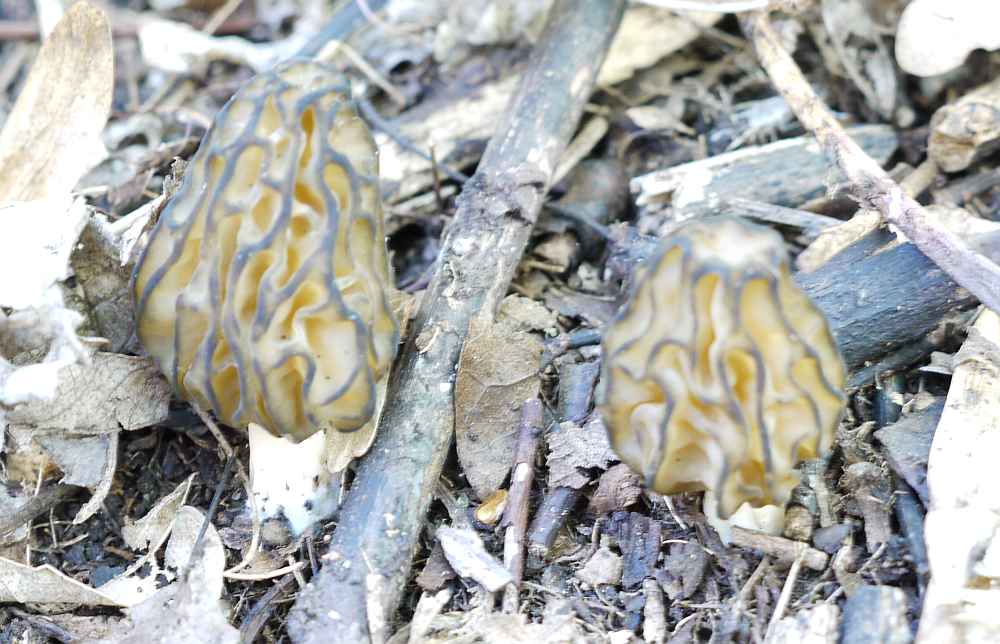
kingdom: Fungi
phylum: Ascomycota
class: Pezizomycetes
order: Pezizales
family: Morchellaceae
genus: Morchella
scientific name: Morchella semilibera
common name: hætte-morkel
